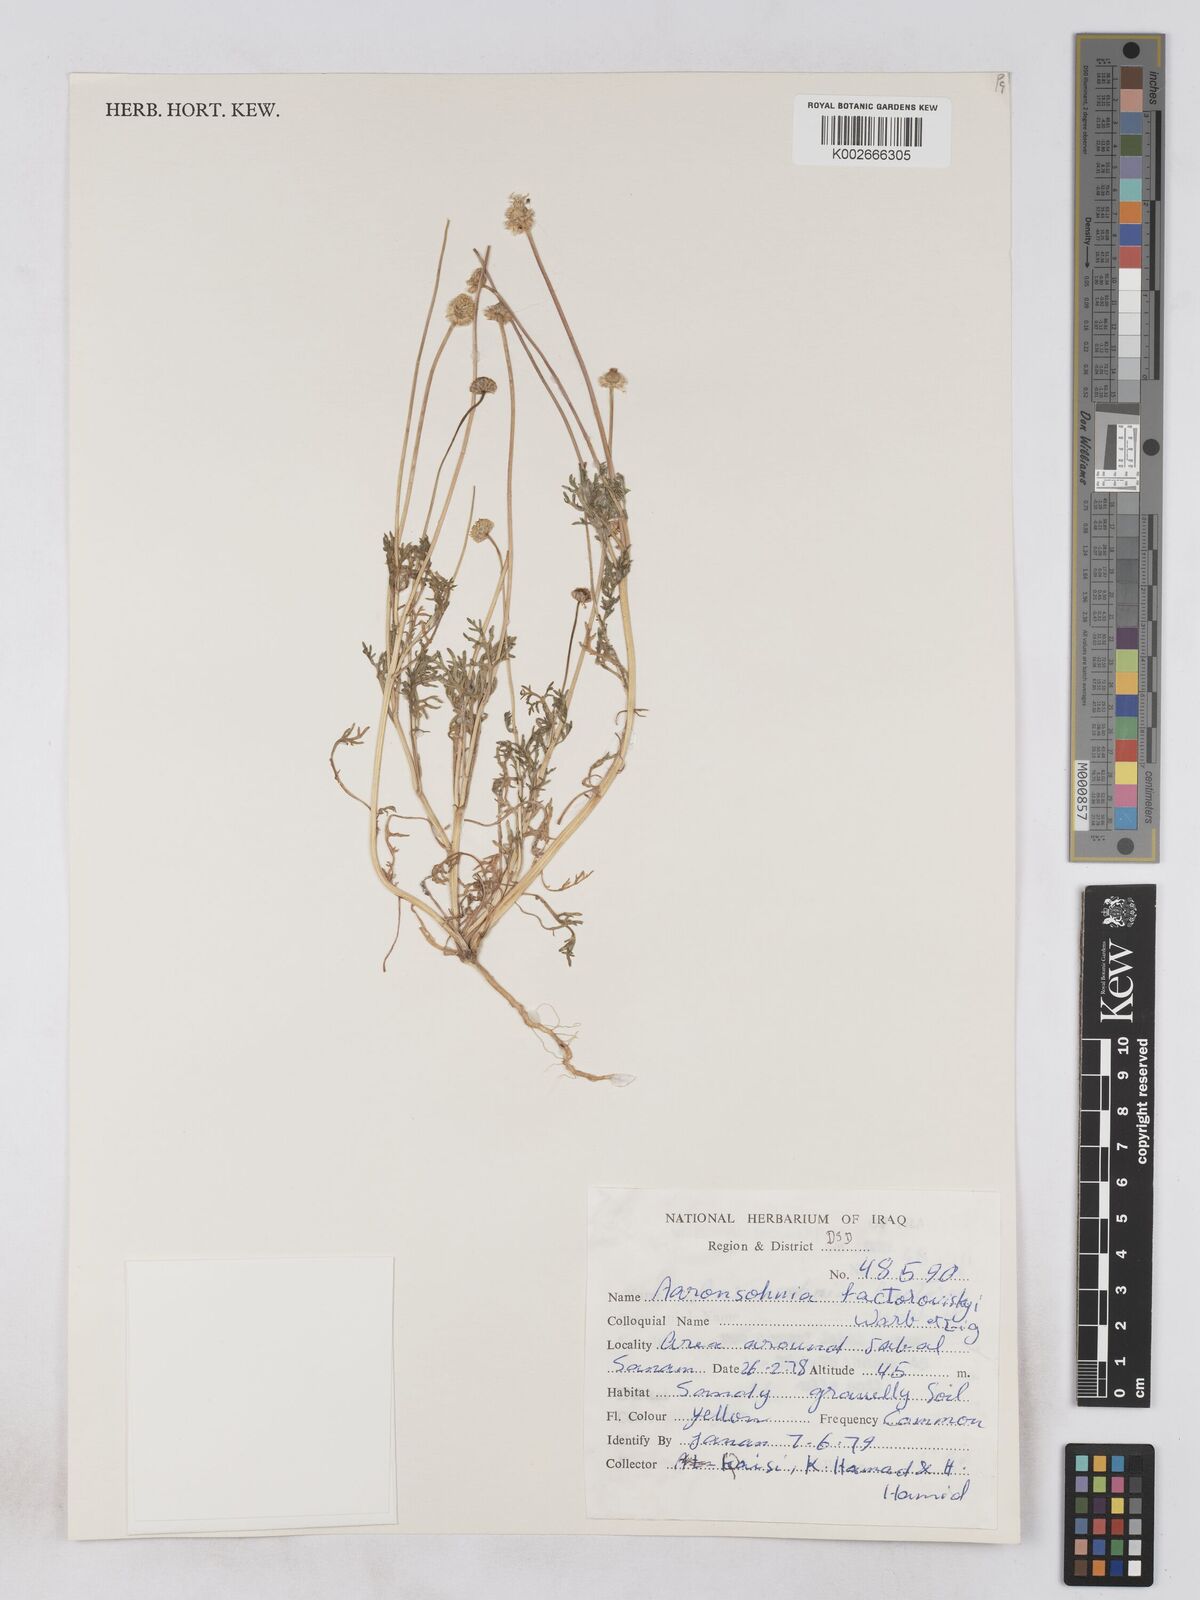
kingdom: Plantae
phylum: Tracheophyta
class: Magnoliopsida
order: Asterales
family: Asteraceae
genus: Otoglyphis
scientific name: Otoglyphis factorovskyi
